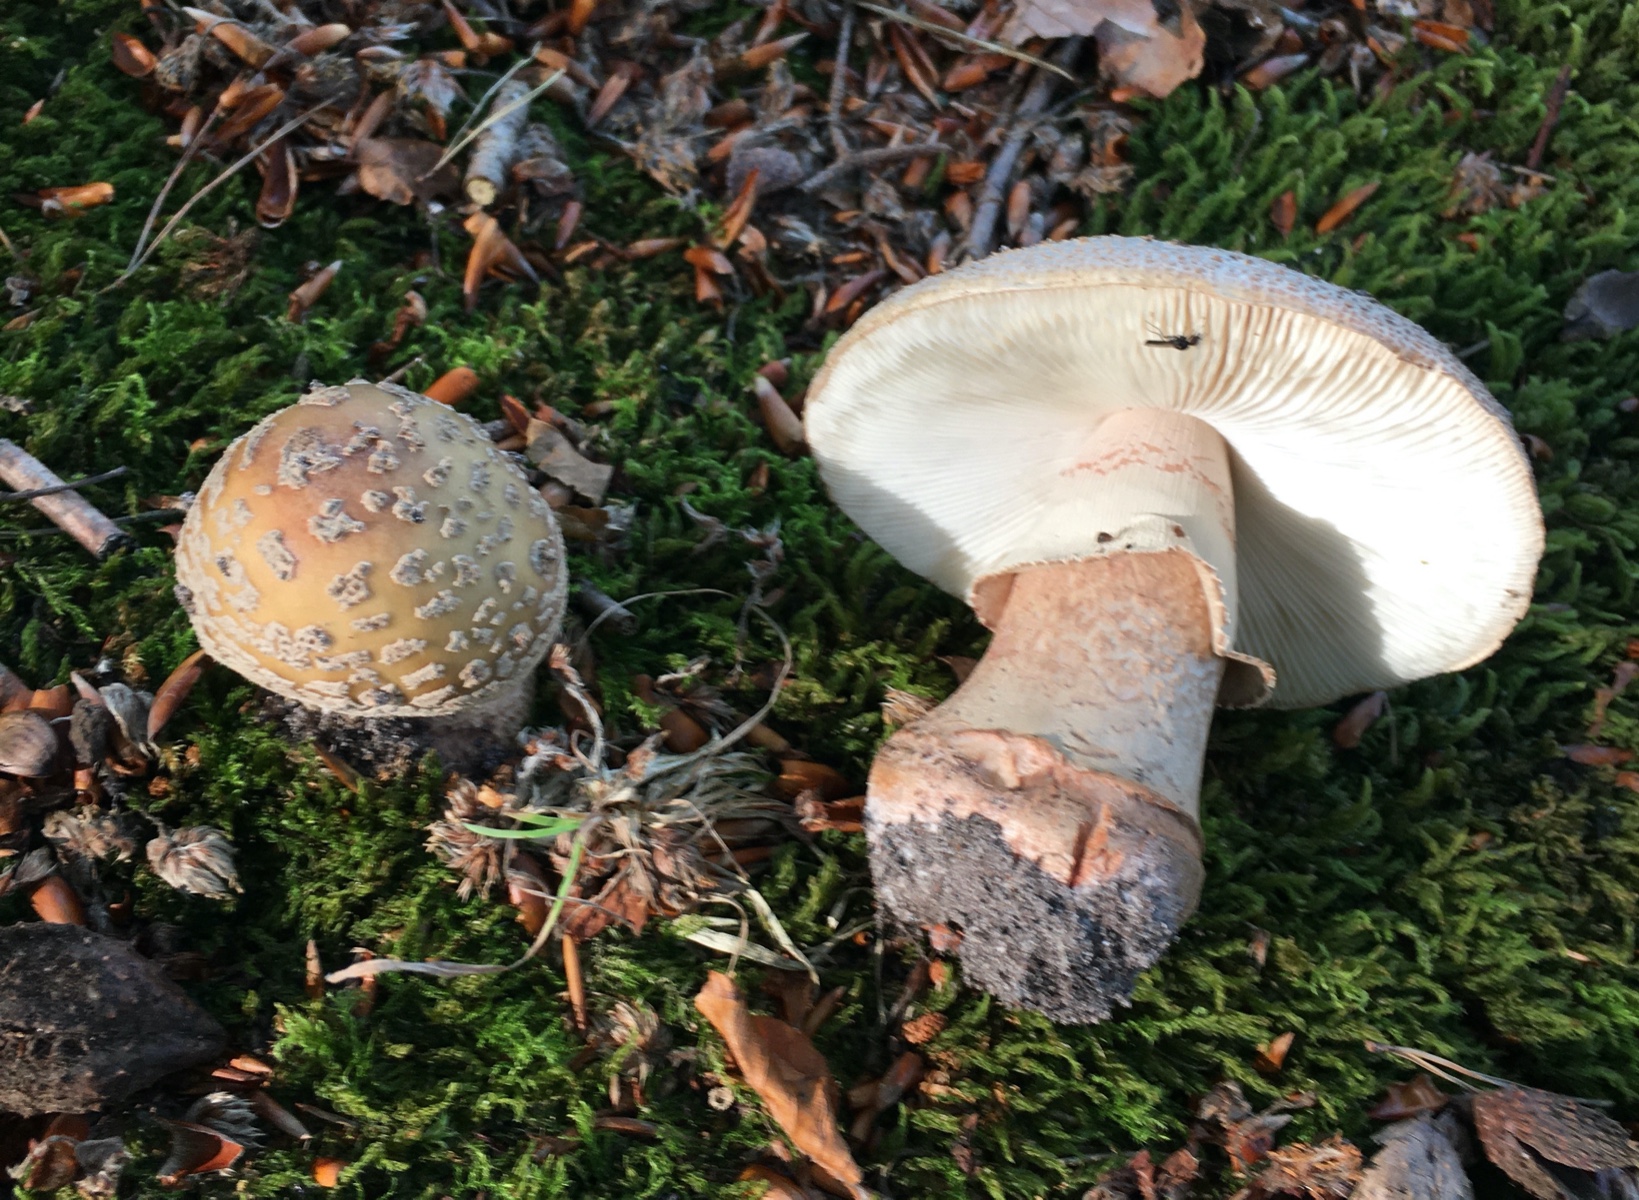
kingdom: Fungi
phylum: Basidiomycota
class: Agaricomycetes
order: Agaricales
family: Amanitaceae
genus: Amanita
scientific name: Amanita rubescens
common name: rødmende fluesvamp
